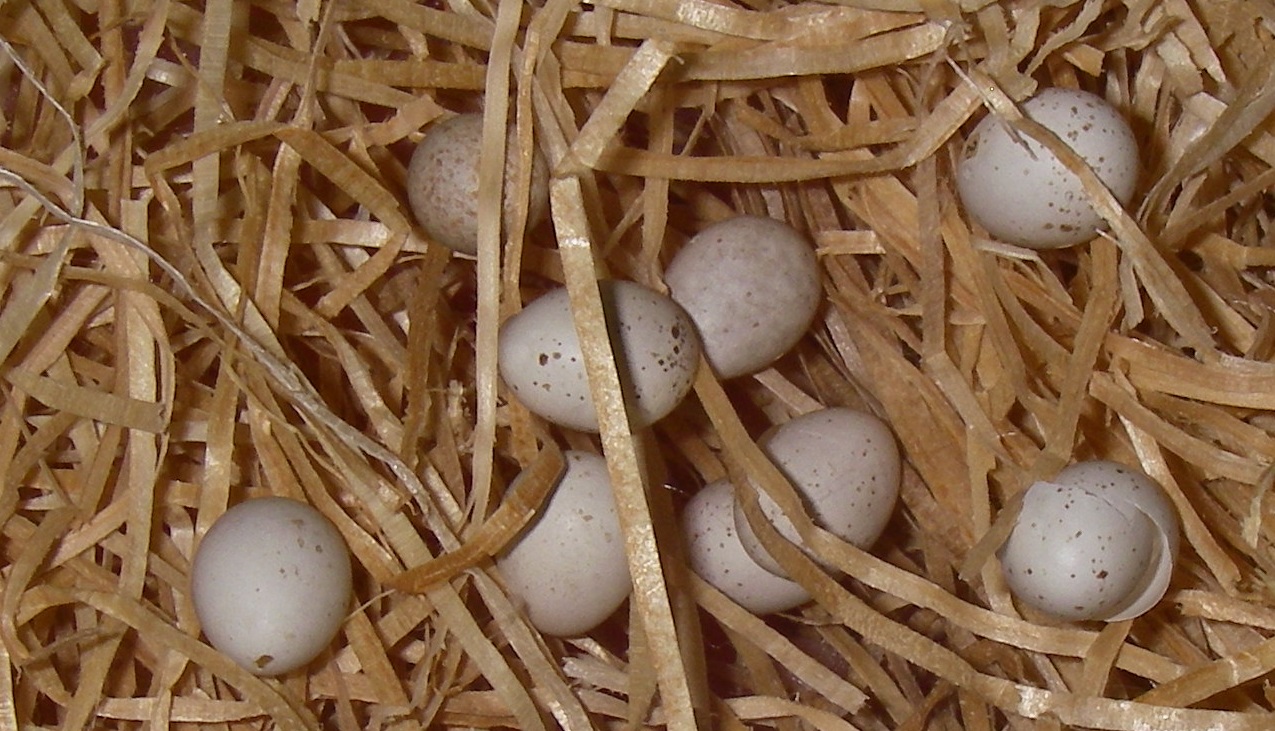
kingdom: Animalia
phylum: Chordata
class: Aves
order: Passeriformes
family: Troglodytidae
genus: Troglodytes
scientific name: Troglodytes troglodytes
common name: Eurasian wren
